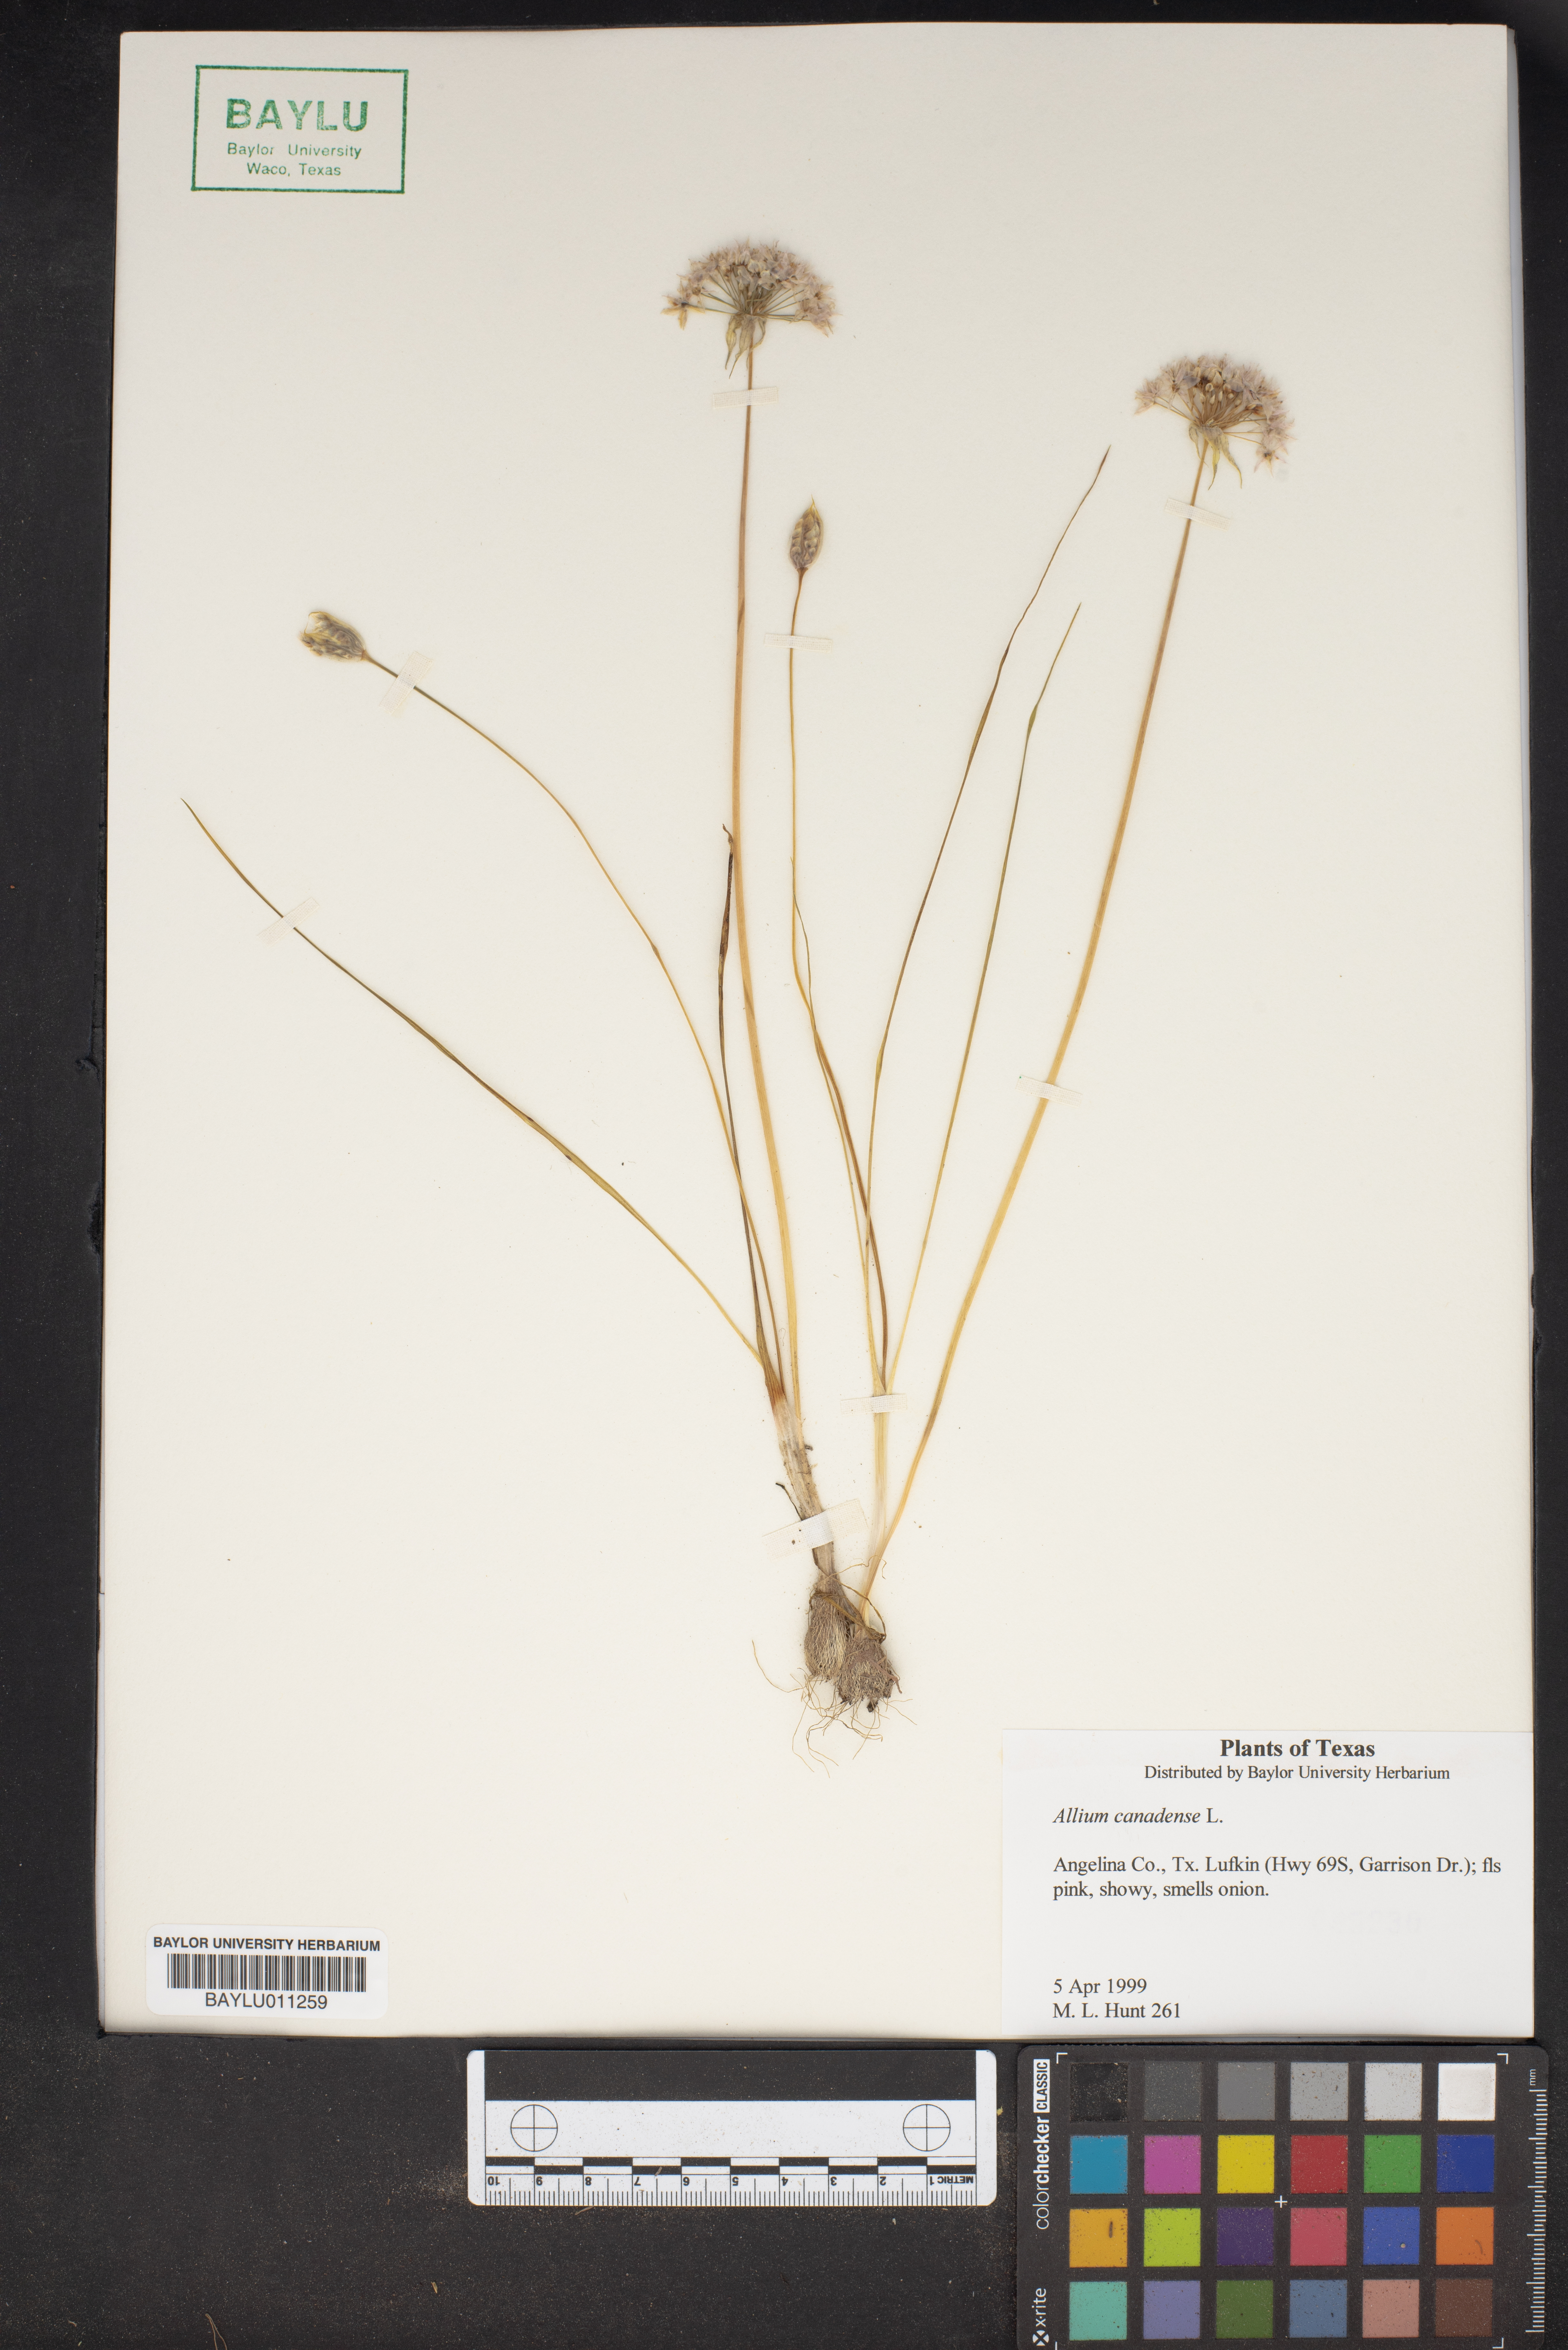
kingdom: Plantae
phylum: Tracheophyta
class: Liliopsida
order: Asparagales
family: Amaryllidaceae
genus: Allium
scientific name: Allium canadense
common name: Meadow garlic
